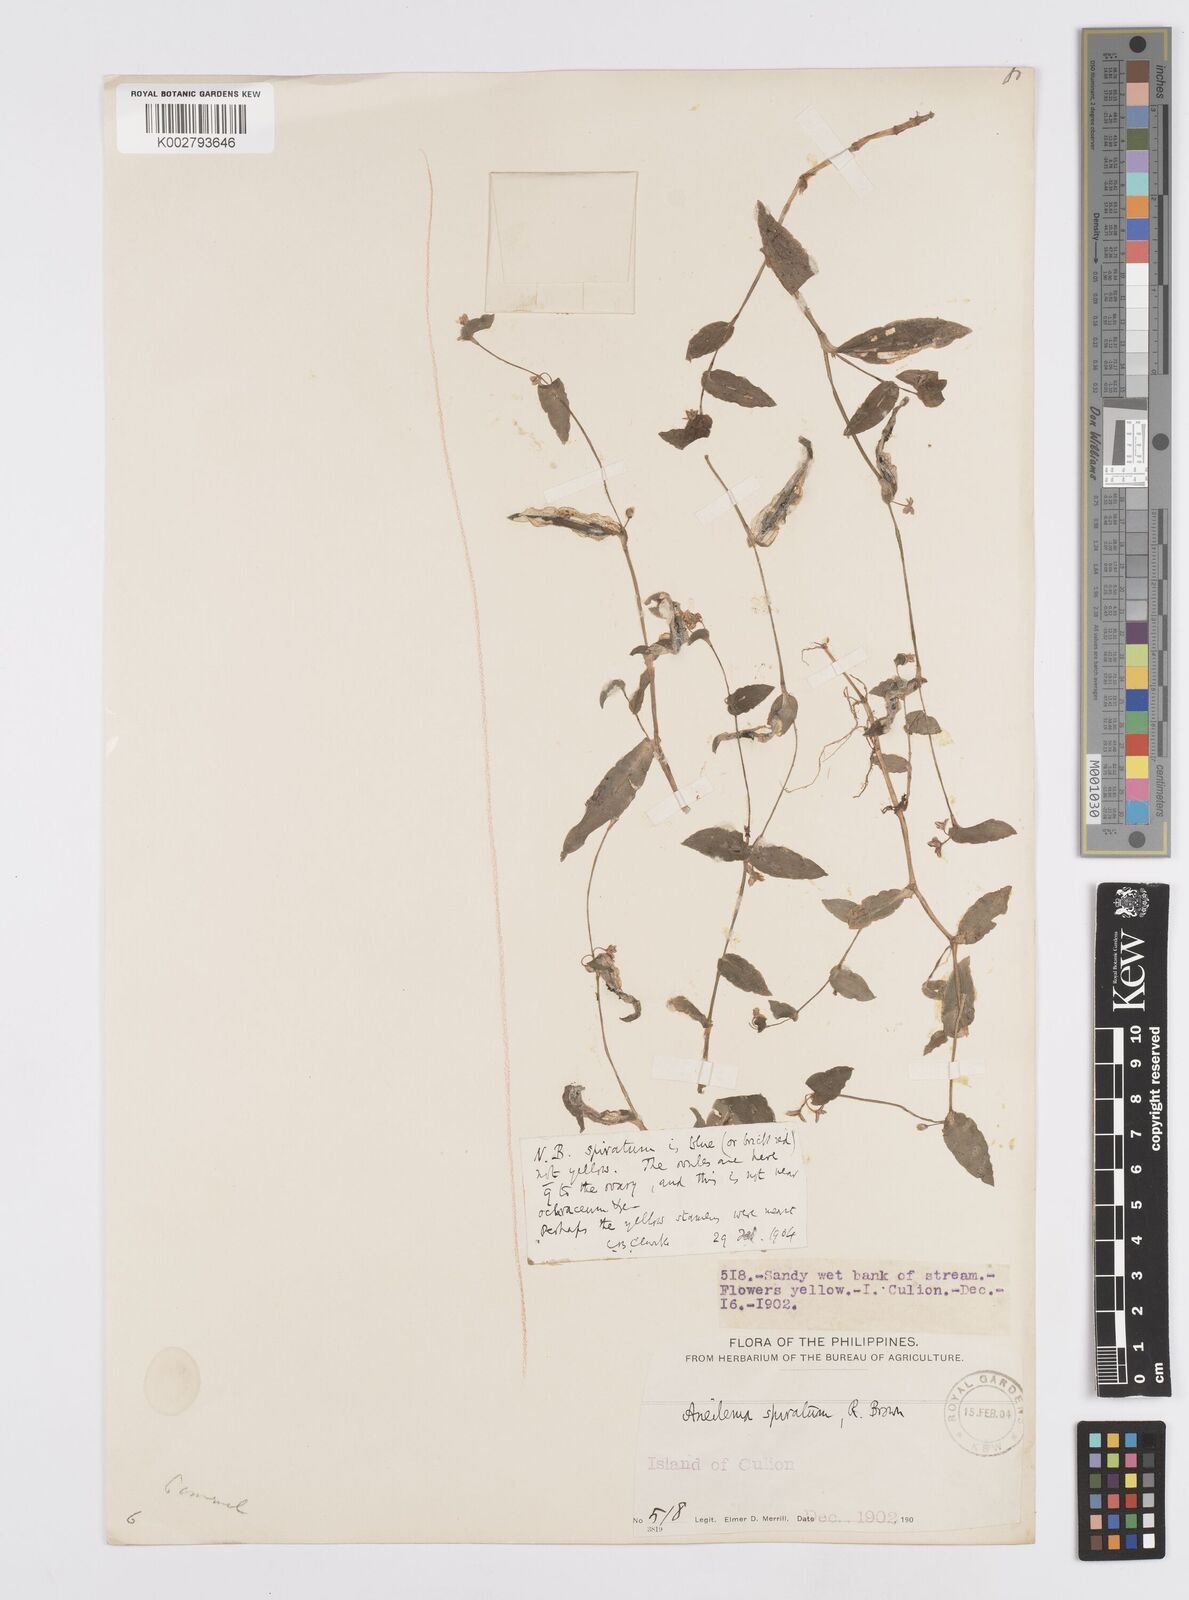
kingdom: Plantae
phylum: Tracheophyta
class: Liliopsida
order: Commelinales
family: Commelinaceae
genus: Murdannia
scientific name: Murdannia spirata
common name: Asiatic dewflower
